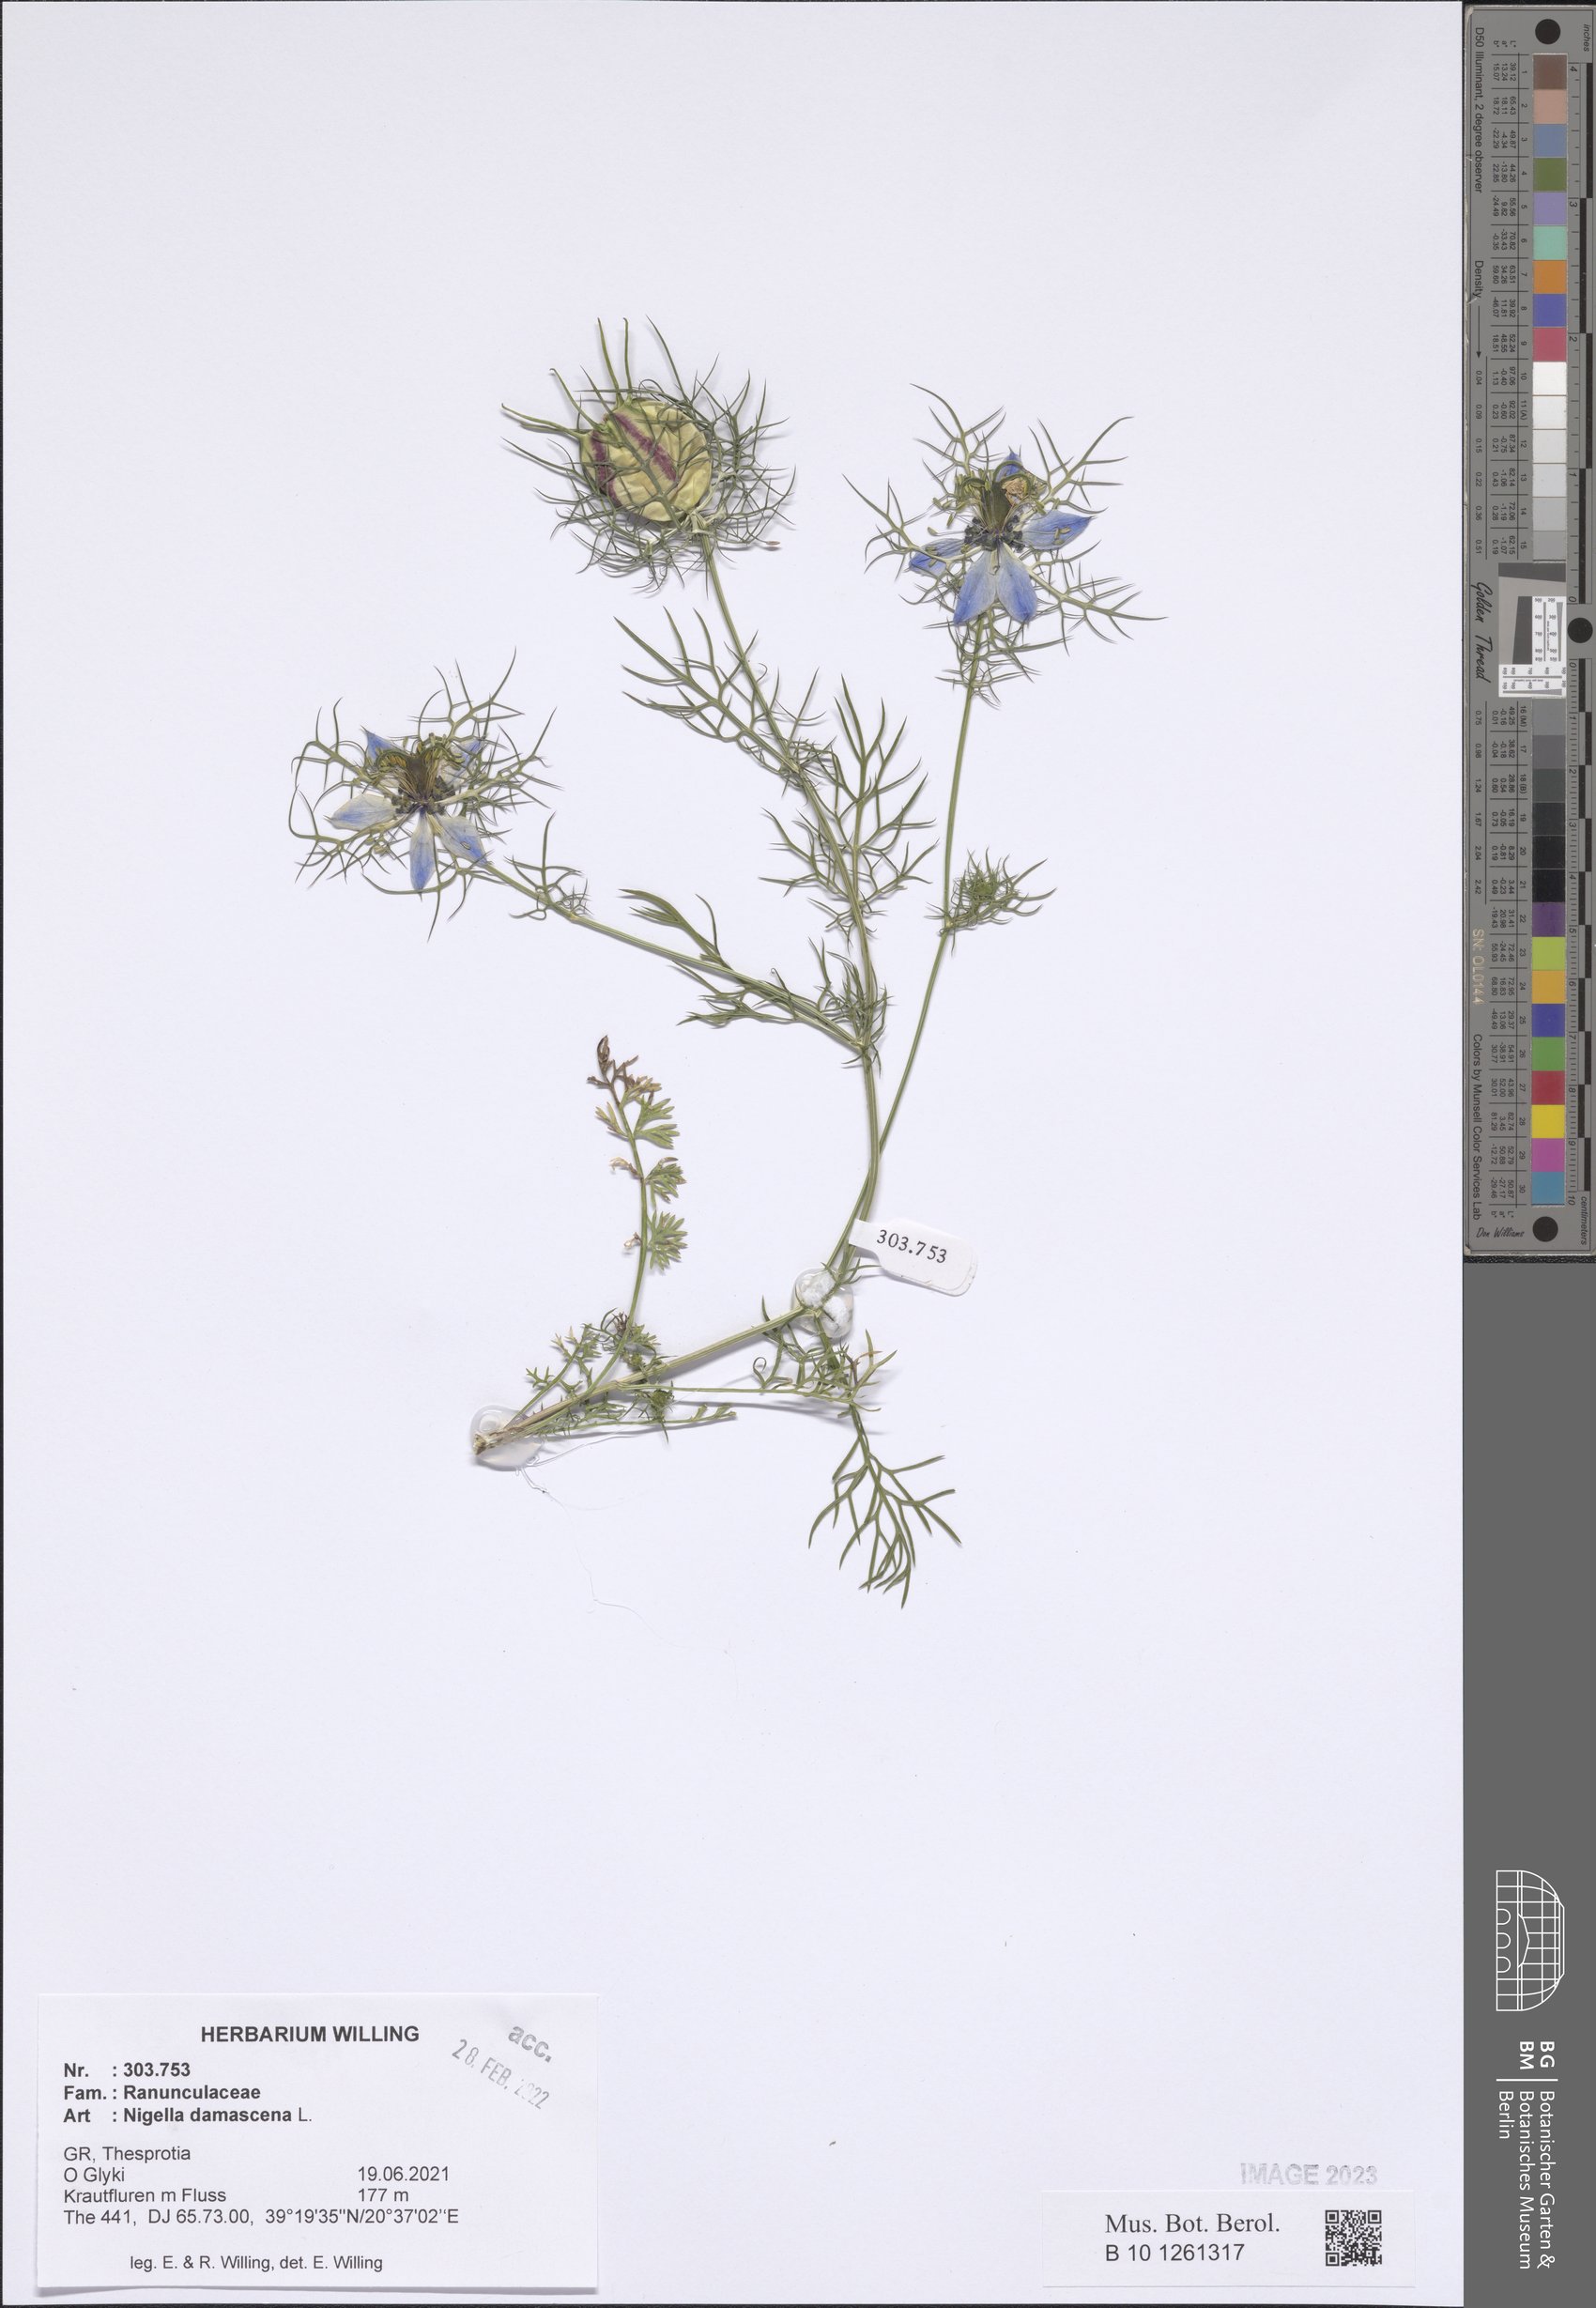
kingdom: Plantae
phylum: Tracheophyta
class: Magnoliopsida
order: Ranunculales
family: Ranunculaceae
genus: Nigella
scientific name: Nigella damascena
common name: Love-in-a-mist
